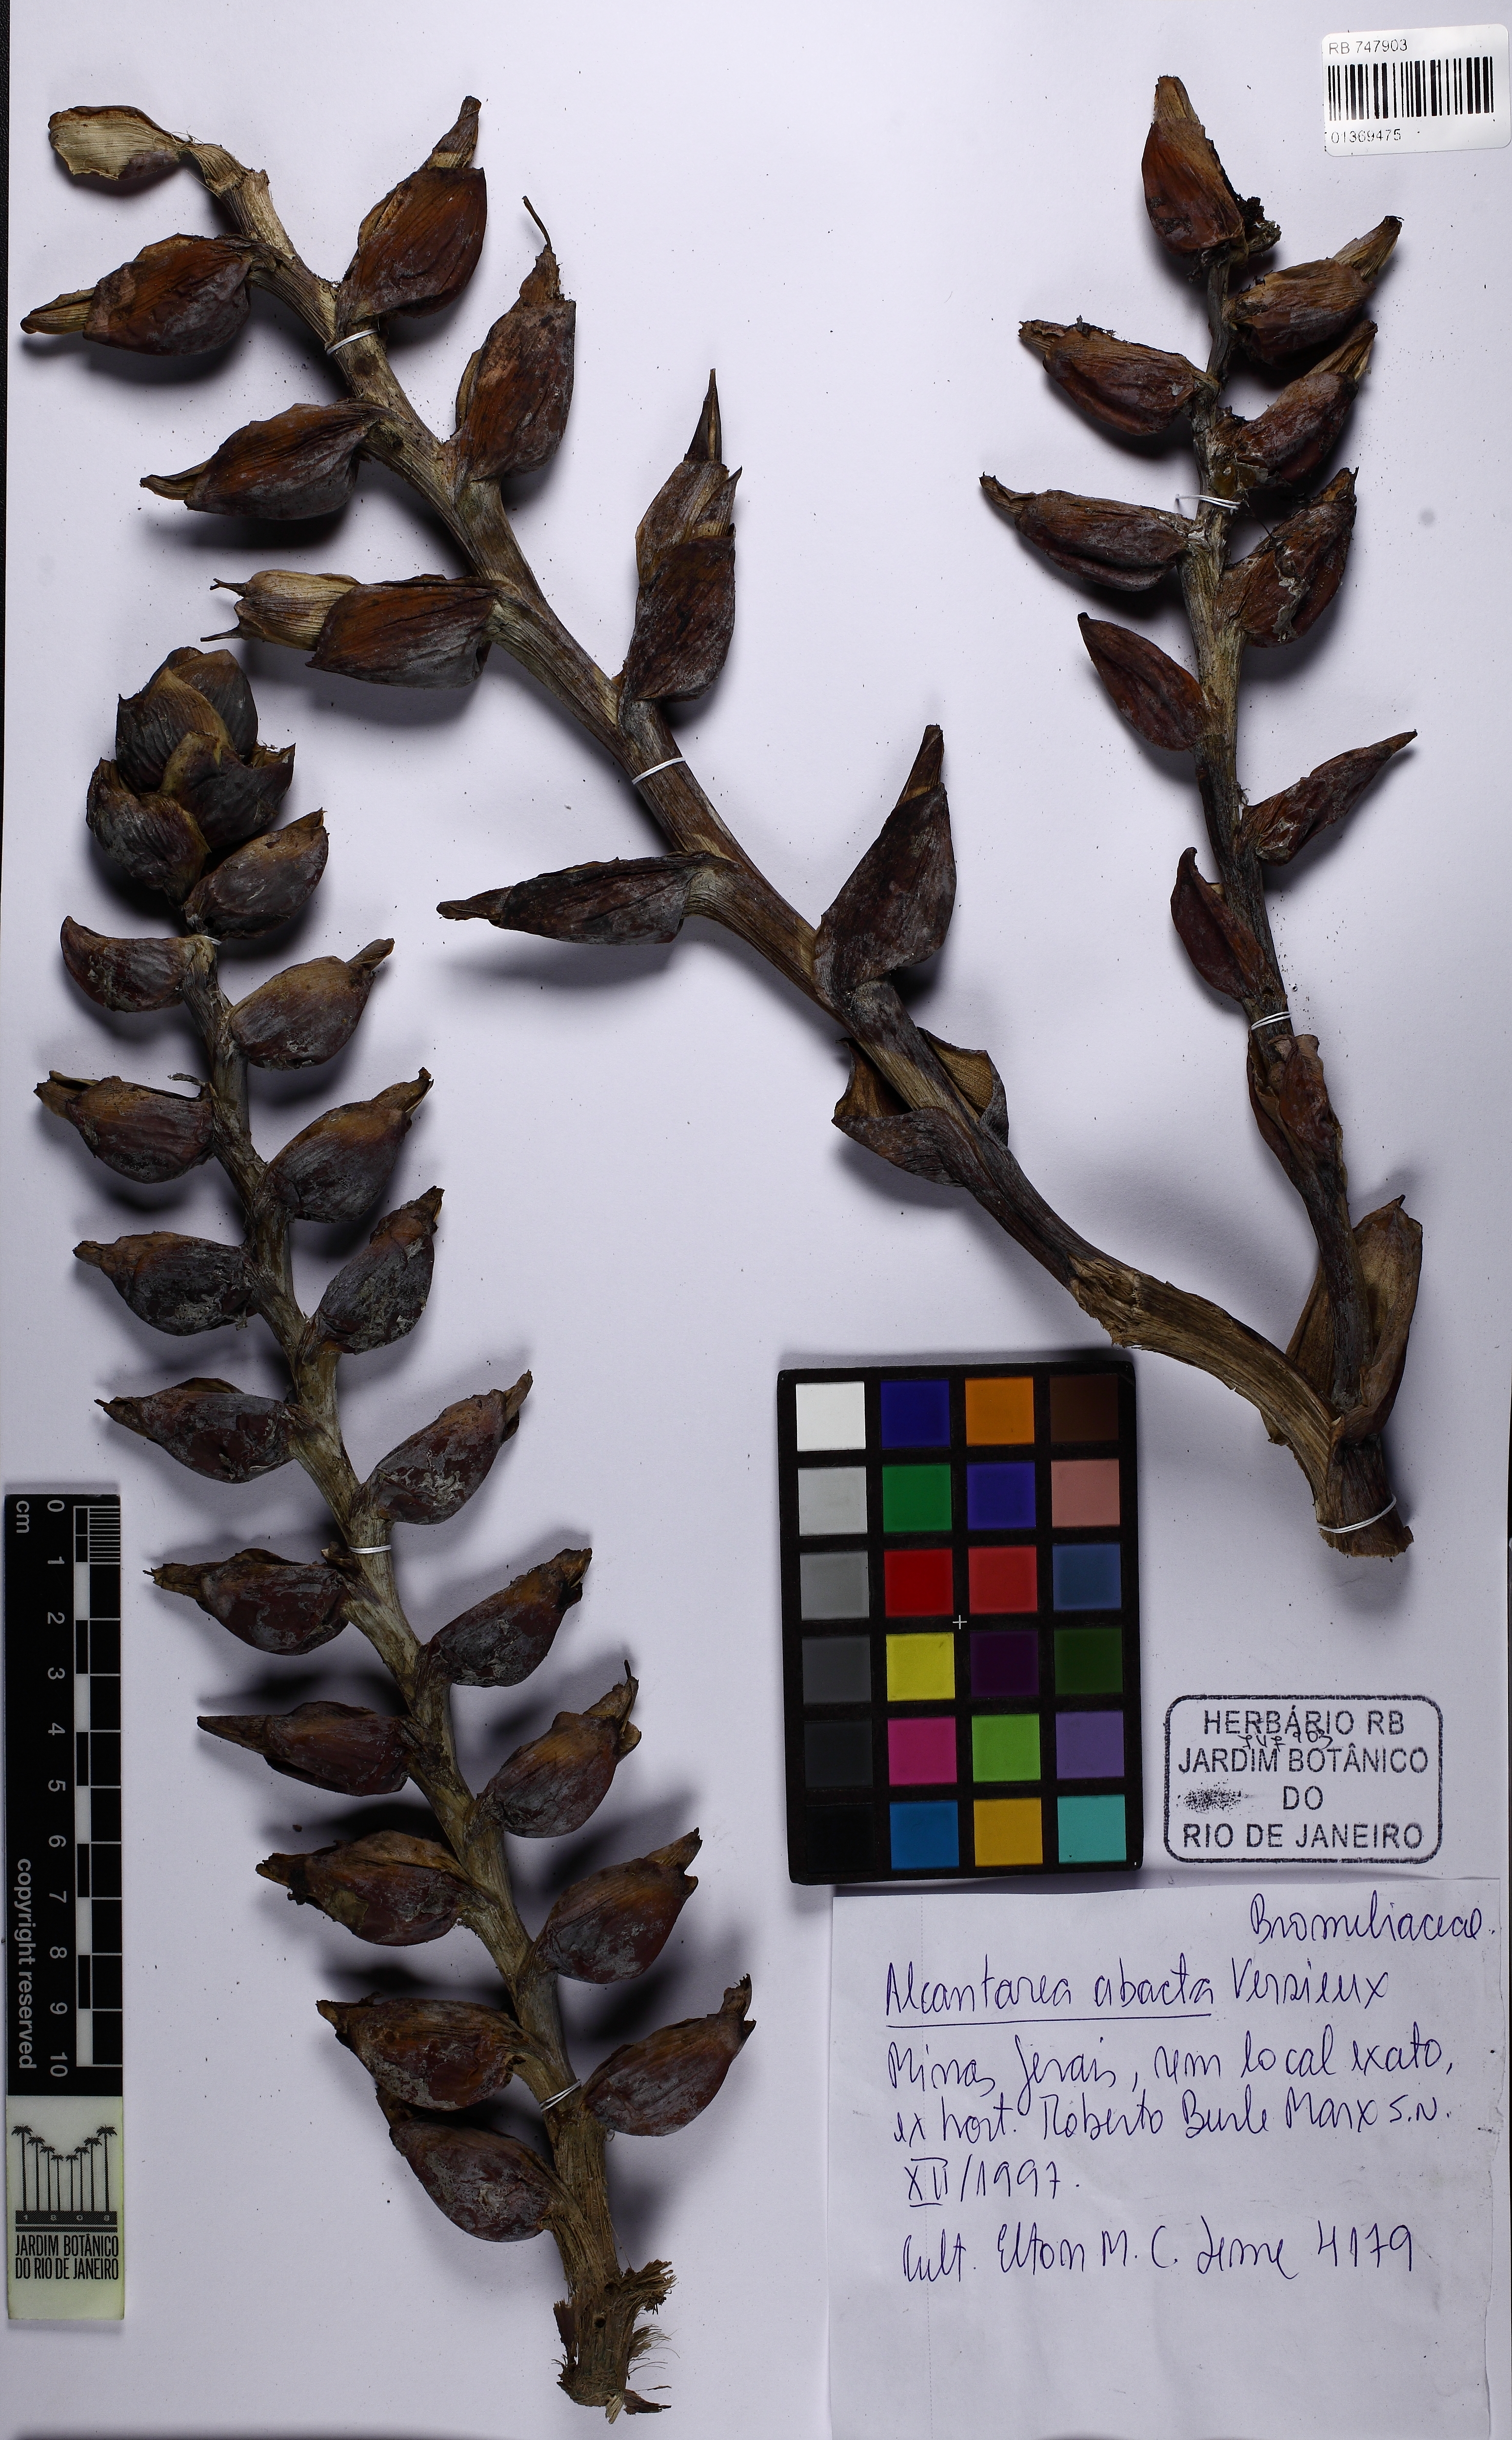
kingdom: Plantae
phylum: Tracheophyta
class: Liliopsida
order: Poales
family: Bromeliaceae
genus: Alcantarea
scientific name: Alcantarea abacta
